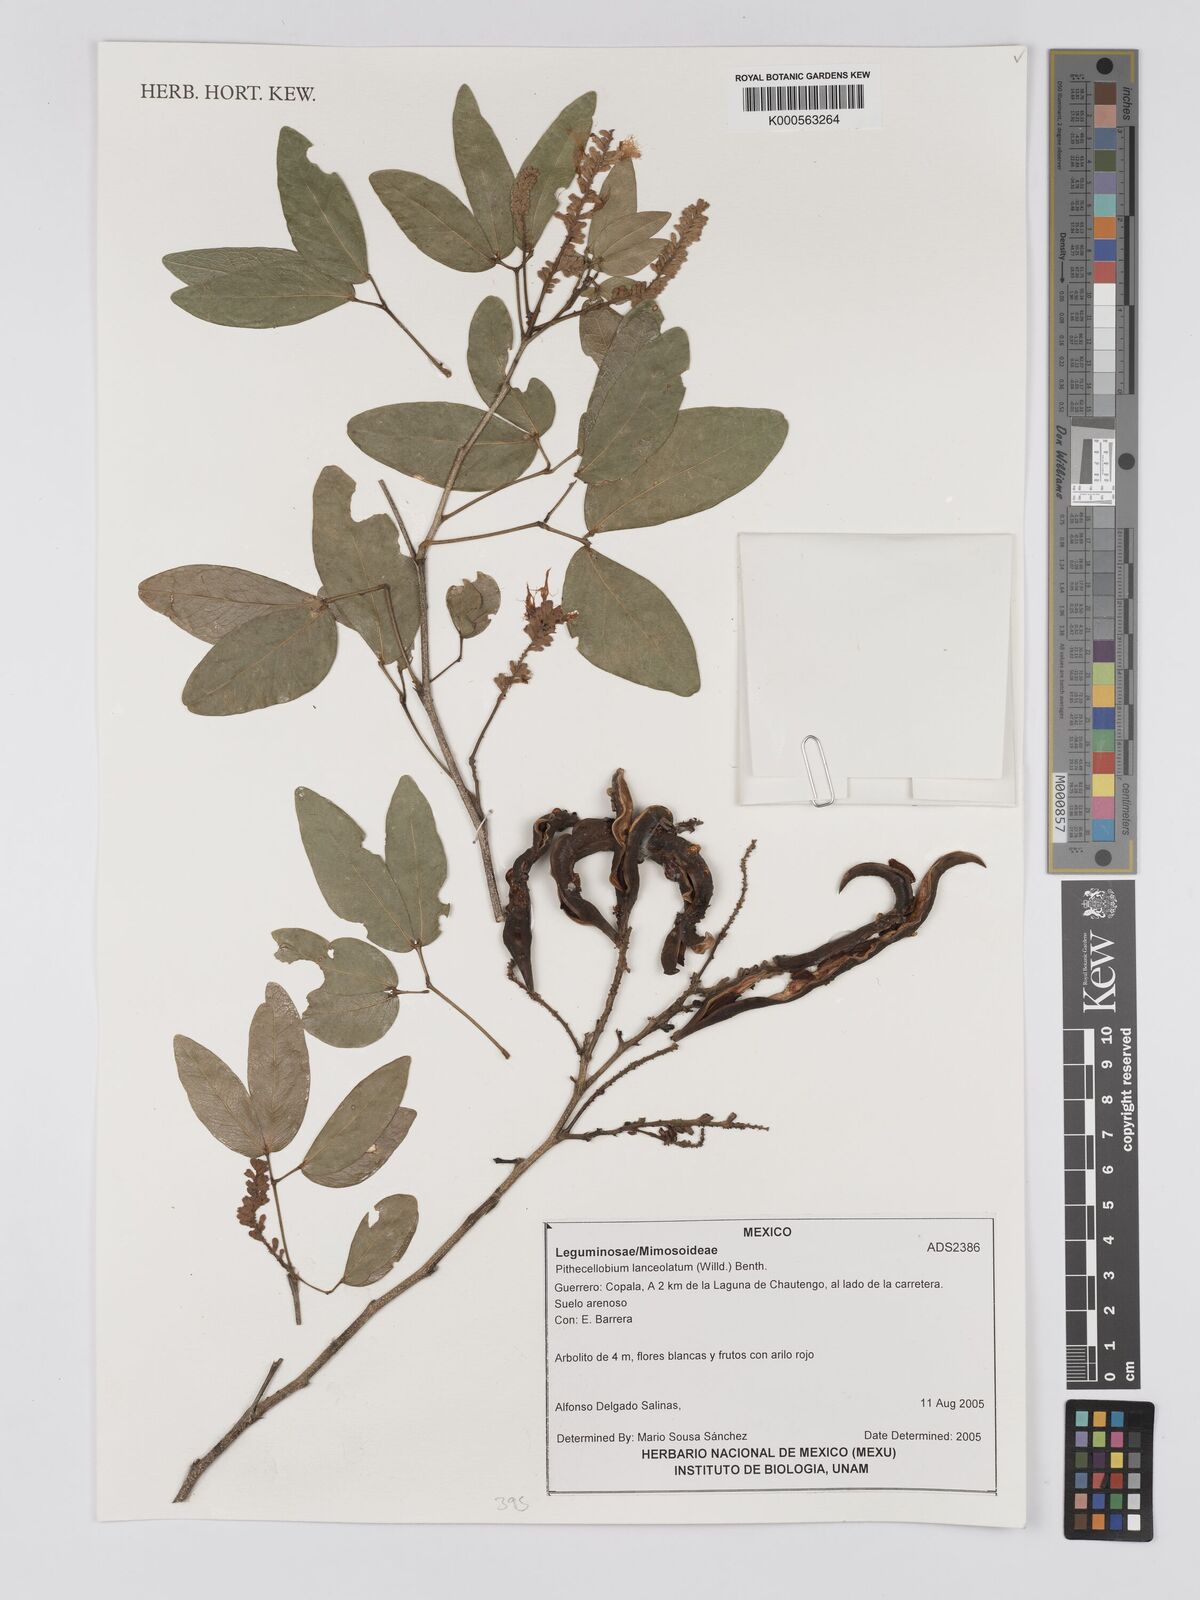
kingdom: Plantae
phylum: Tracheophyta
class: Magnoliopsida
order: Fabales
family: Fabaceae
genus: Pithecellobium
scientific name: Pithecellobium lanceolatum
